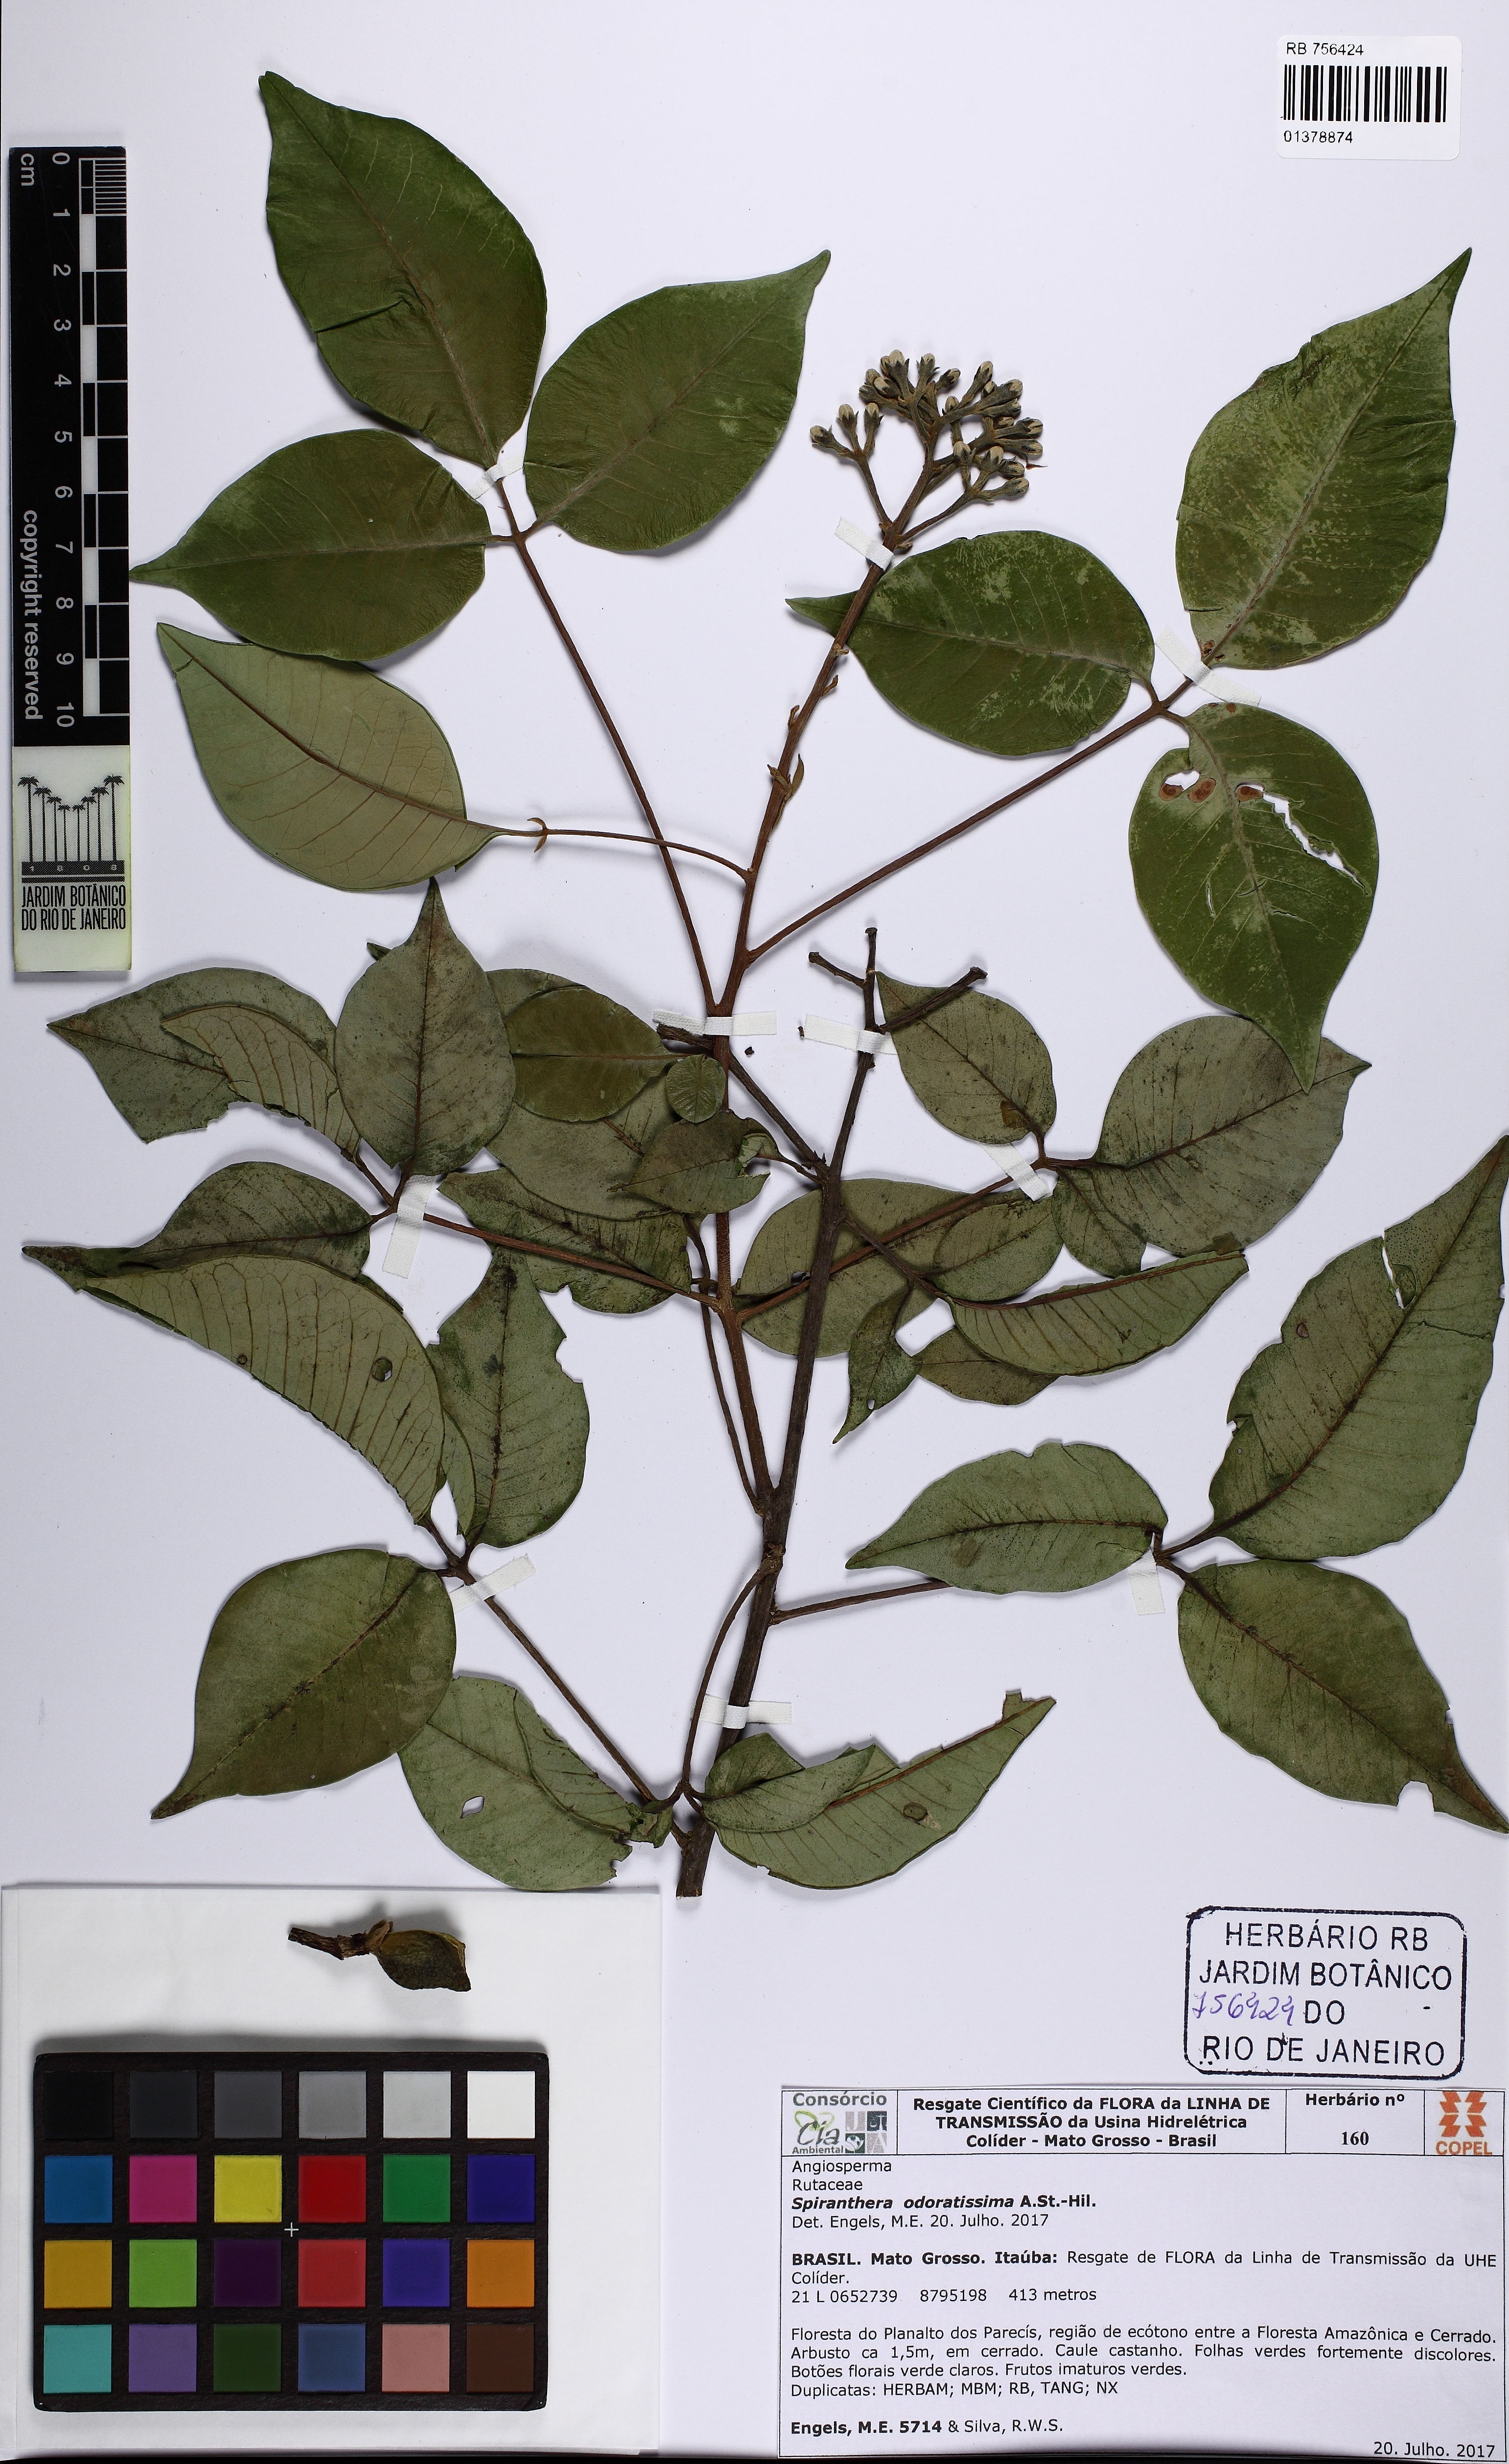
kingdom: Plantae
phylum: Tracheophyta
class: Magnoliopsida
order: Sapindales
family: Rutaceae
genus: Spiranthera
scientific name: Spiranthera odoratissima
